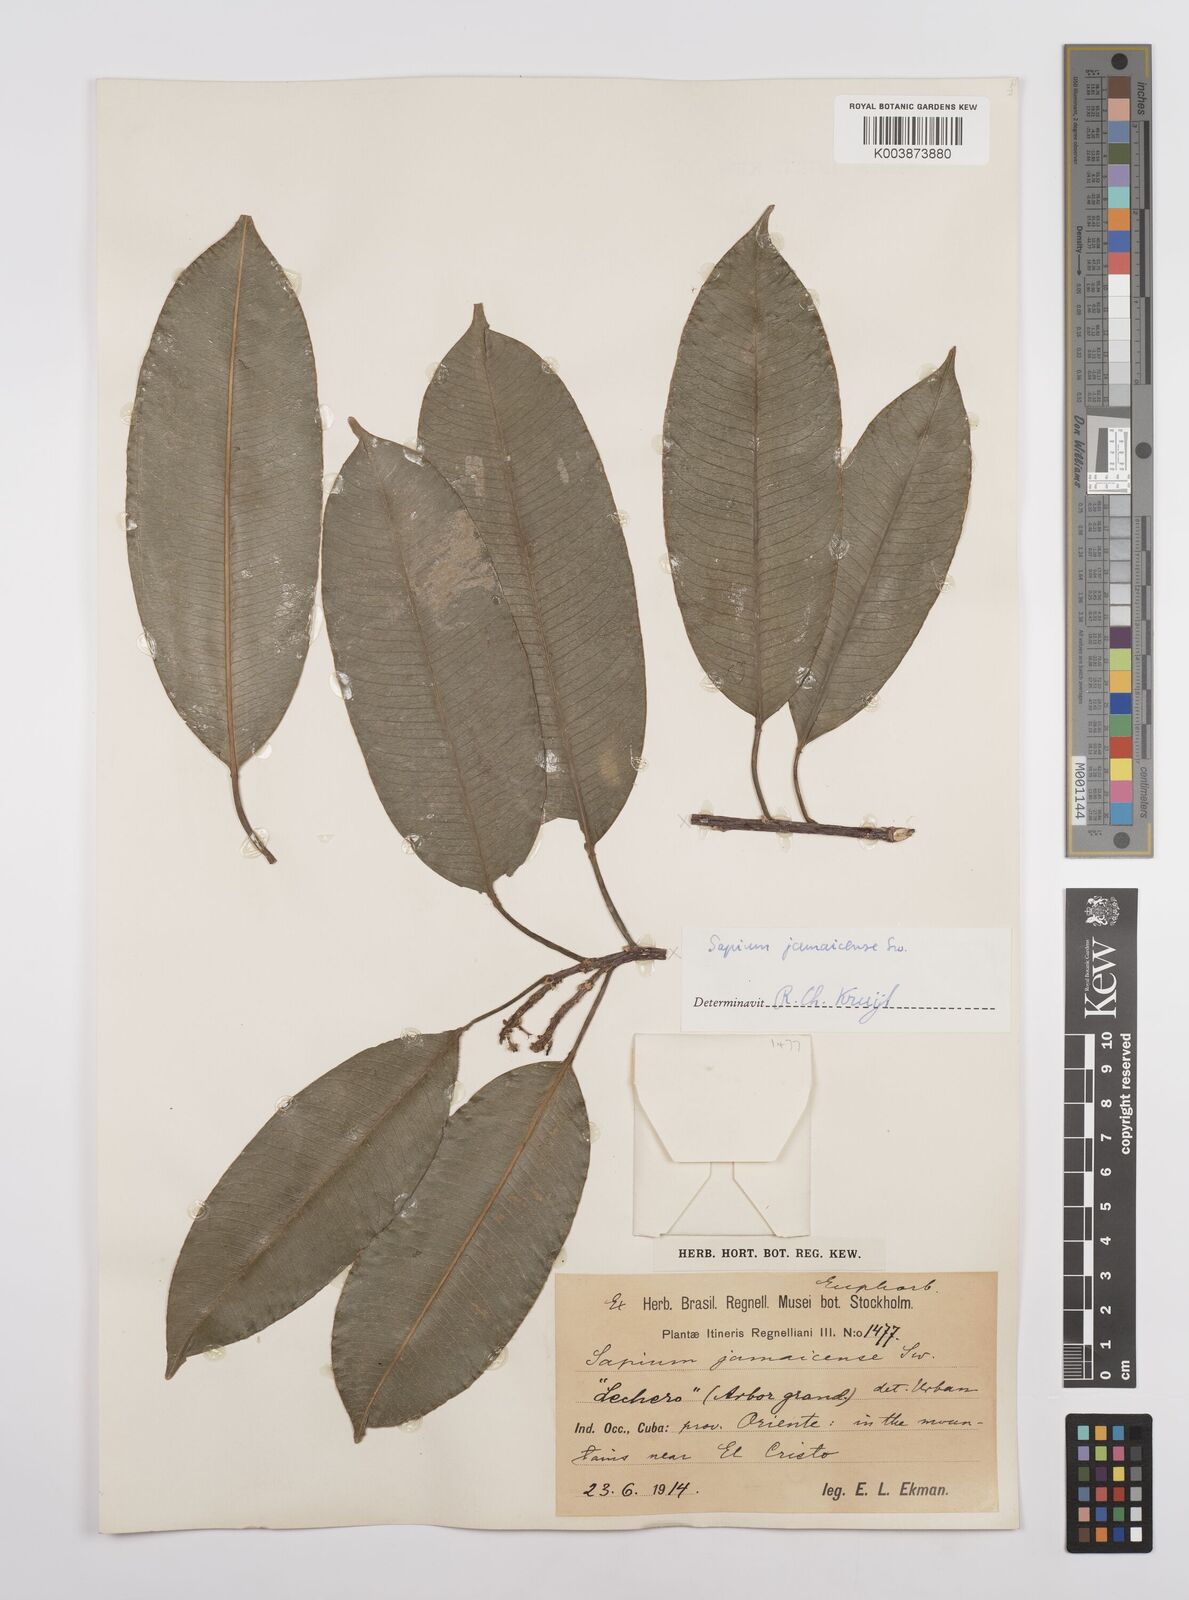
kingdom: Plantae
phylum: Tracheophyta
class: Magnoliopsida
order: Malpighiales
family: Euphorbiaceae
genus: Sapium
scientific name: Sapium glandulosum
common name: Milktree
